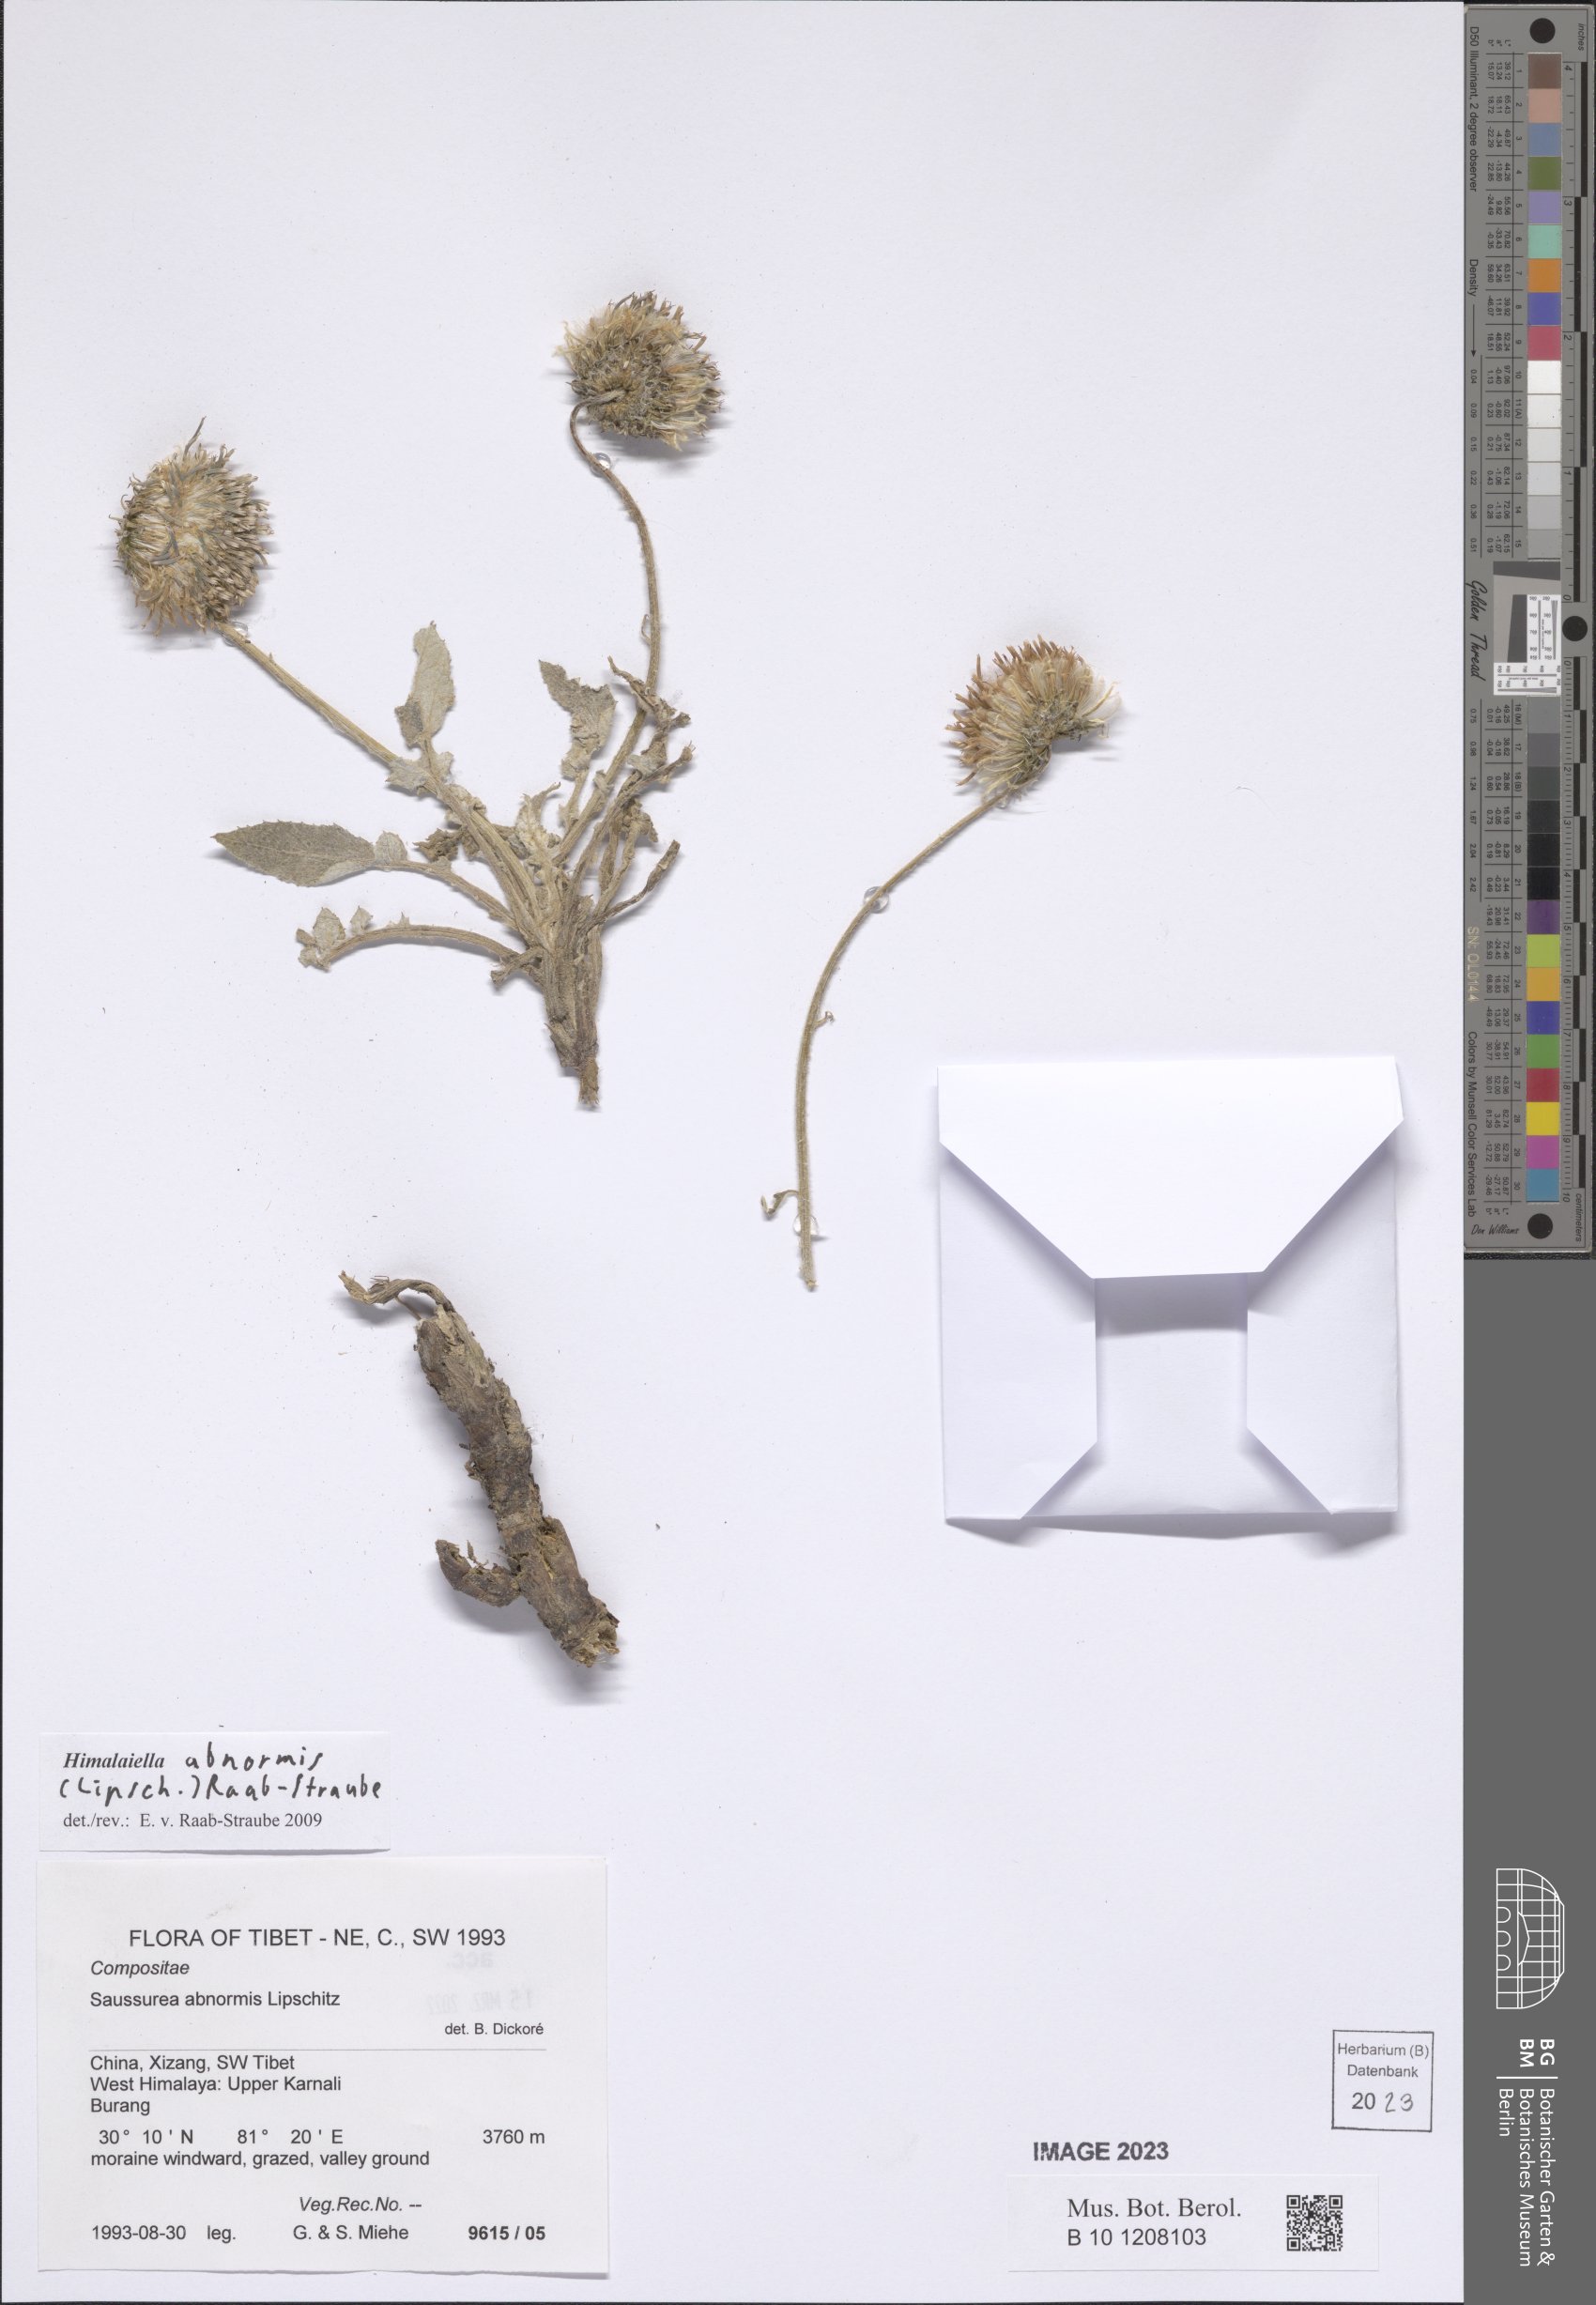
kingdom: Plantae
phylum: Tracheophyta
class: Magnoliopsida
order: Asterales
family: Asteraceae
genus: Saussurea
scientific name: Saussurea abnormis
